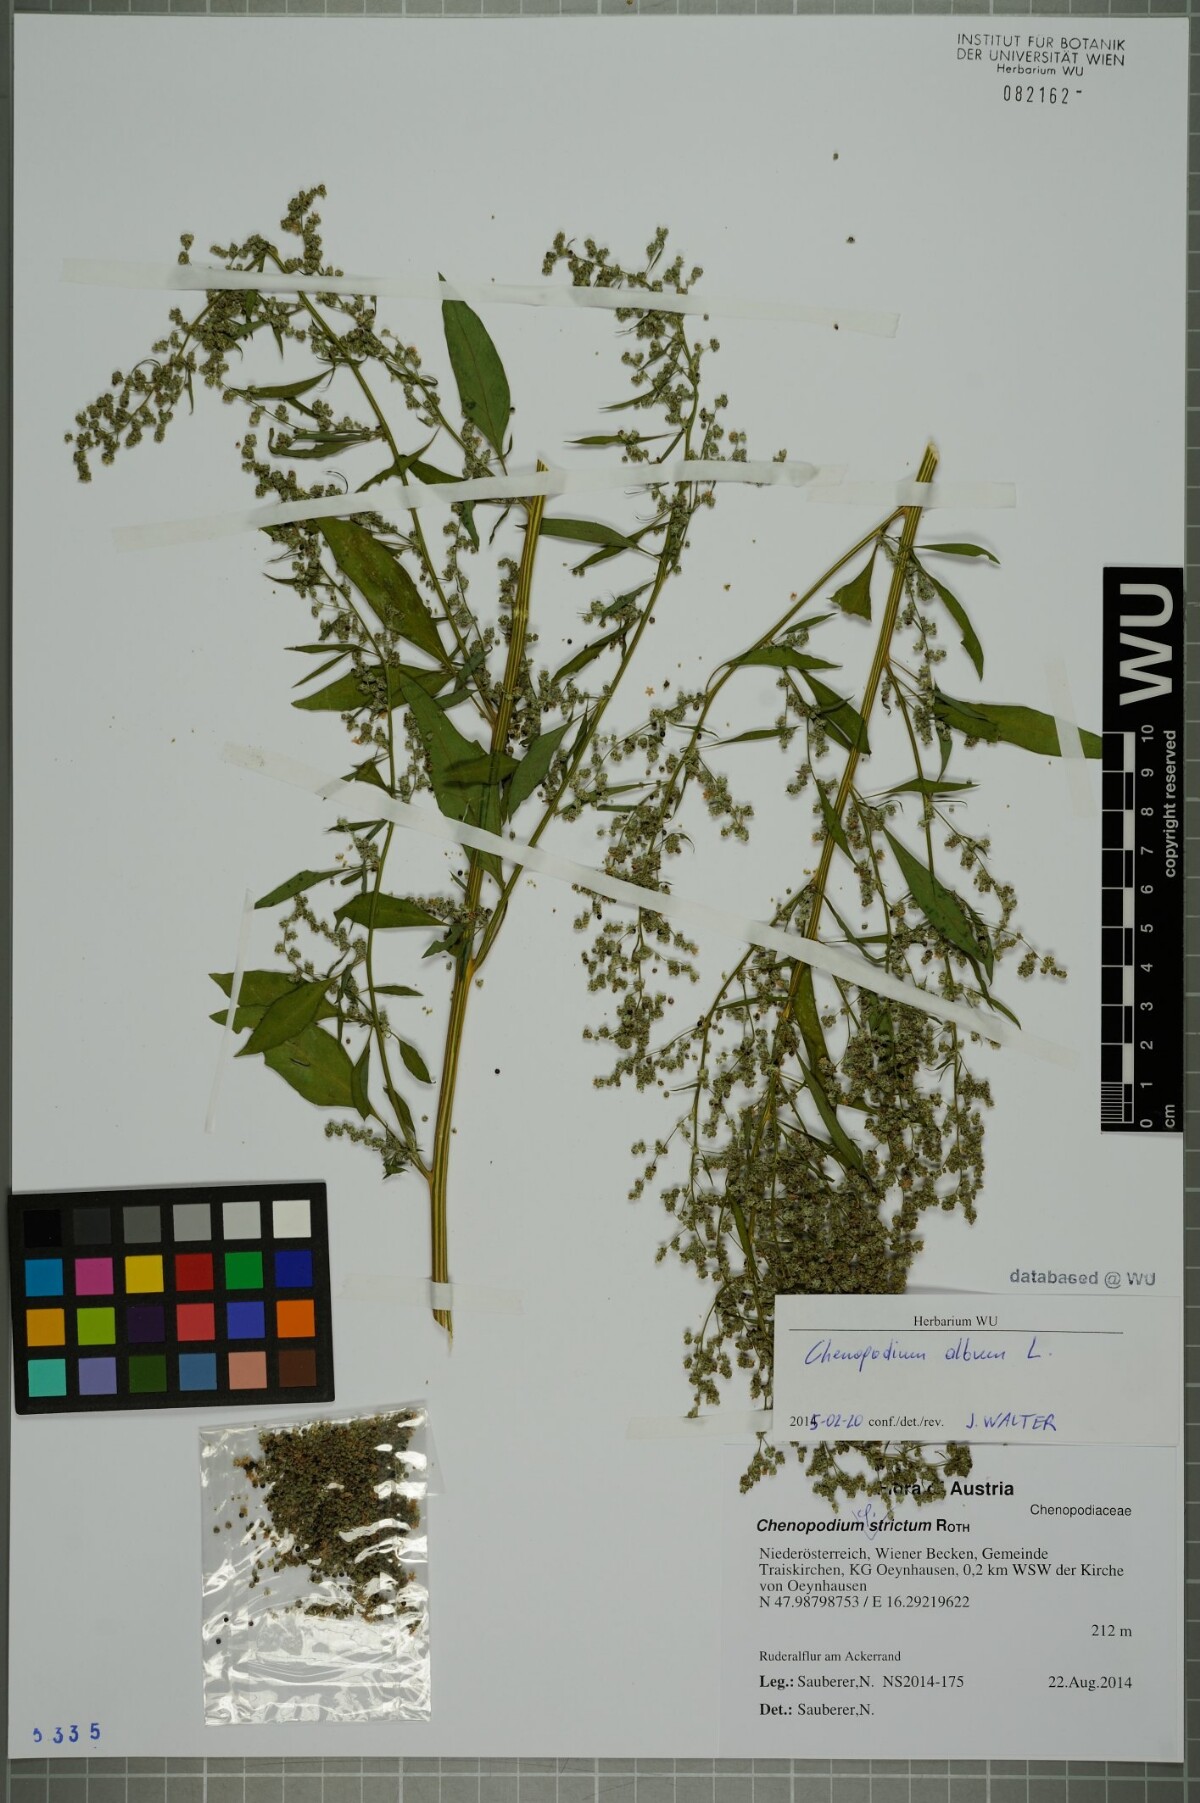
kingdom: Plantae
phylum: Tracheophyta
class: Magnoliopsida
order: Caryophyllales
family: Amaranthaceae
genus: Chenopodium
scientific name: Chenopodium album
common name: Fat-hen
